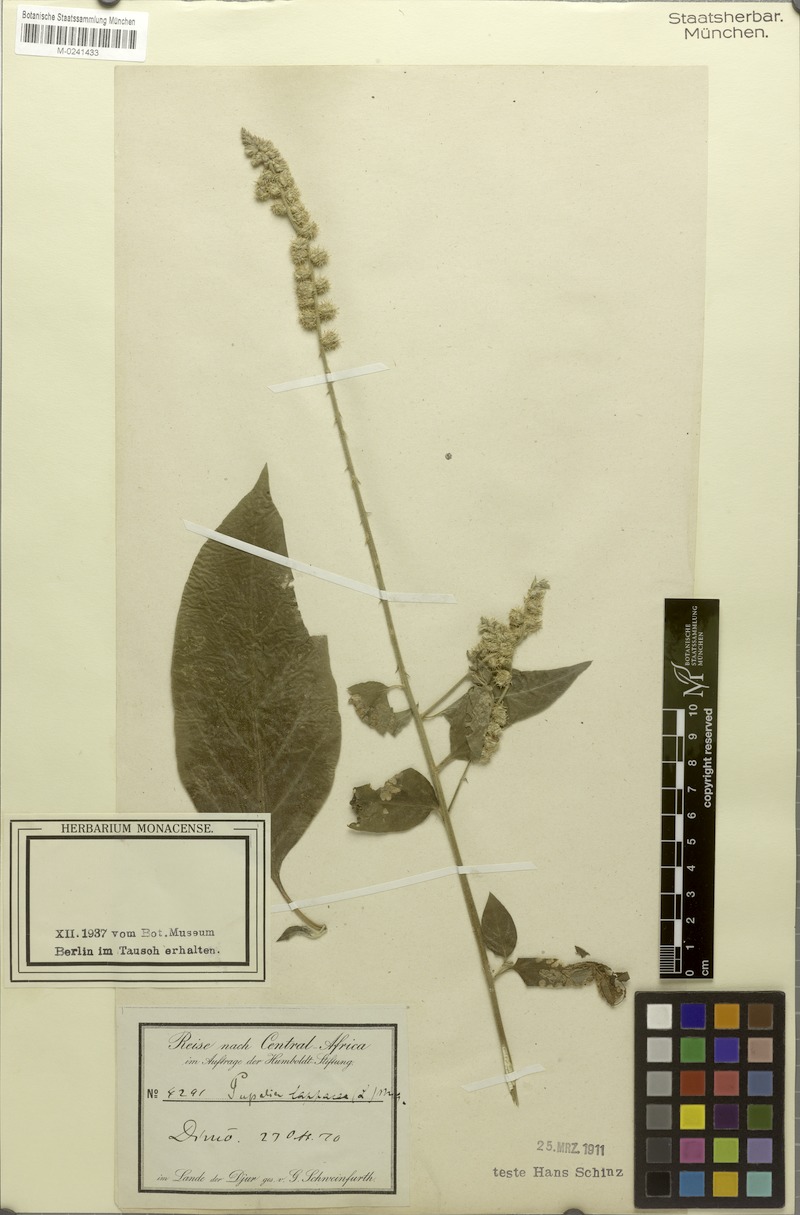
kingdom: Plantae
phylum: Tracheophyta
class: Magnoliopsida
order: Caryophyllales
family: Amaranthaceae
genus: Pupalia
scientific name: Pupalia lappacea
